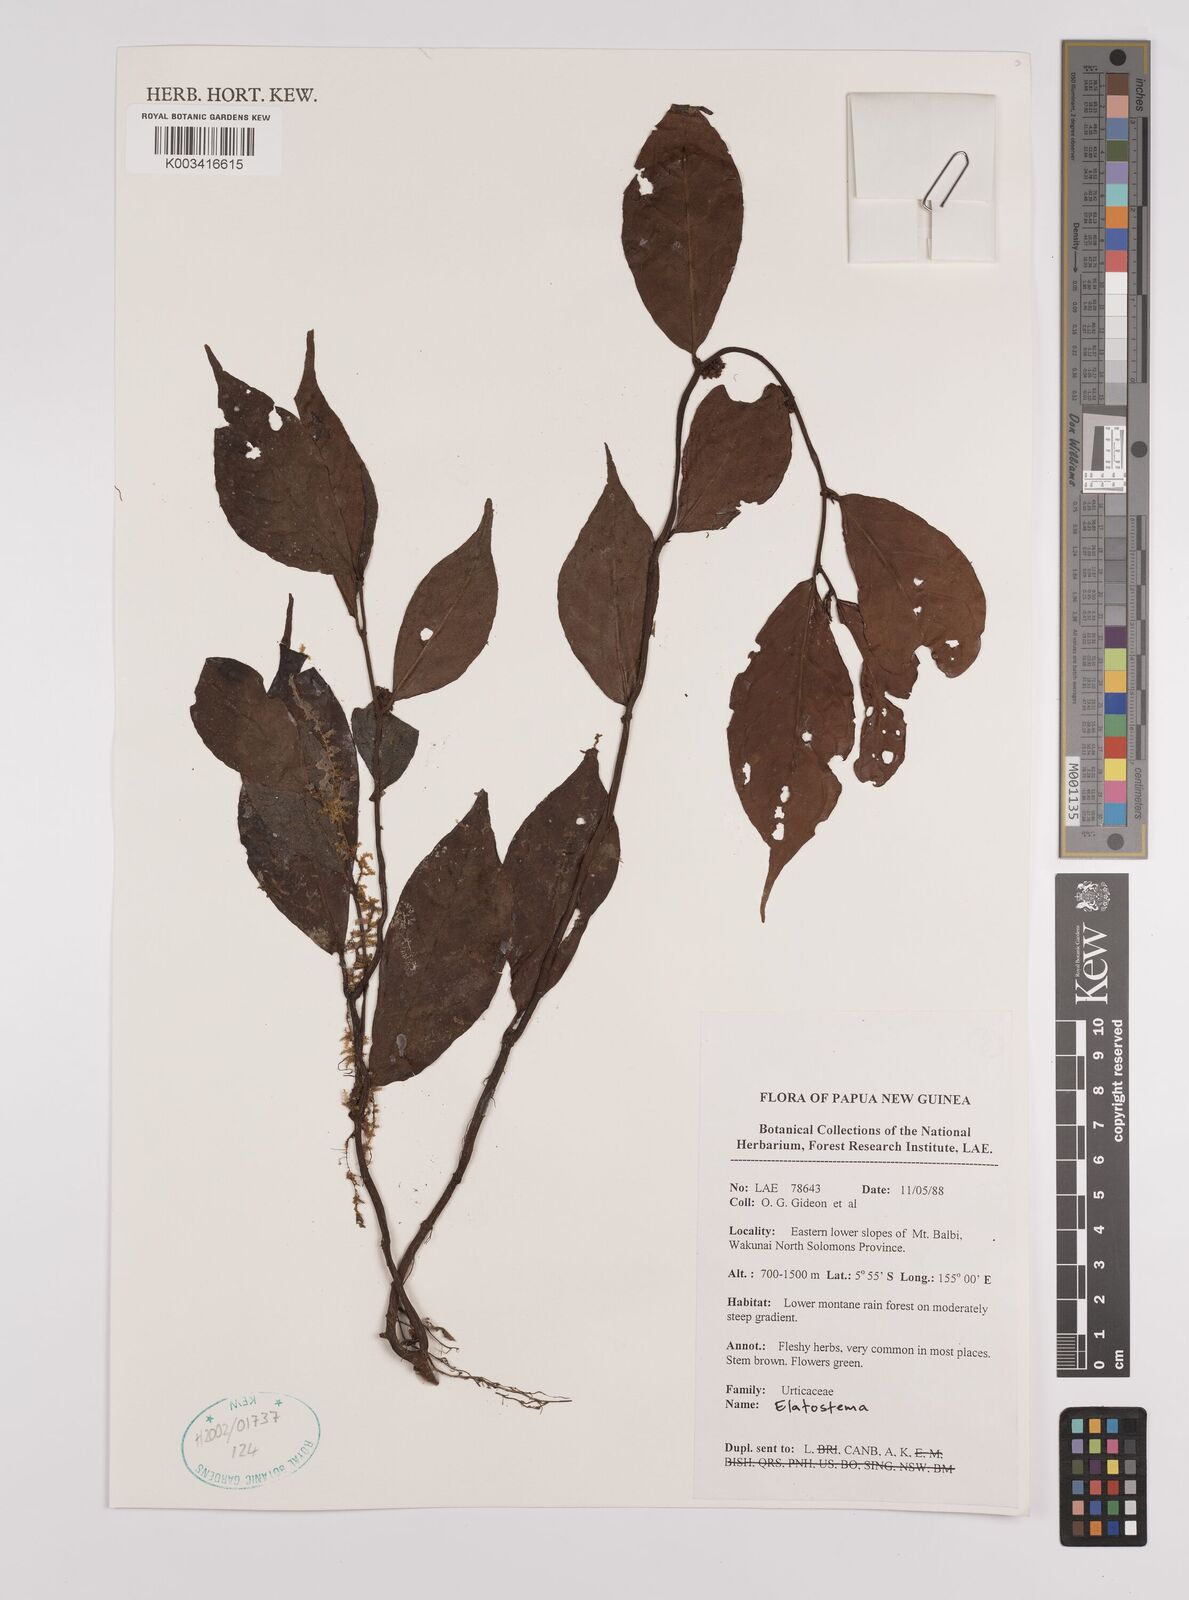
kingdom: Plantae
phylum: Tracheophyta
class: Magnoliopsida
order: Rosales
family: Urticaceae
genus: Elatostema
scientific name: Elatostema
